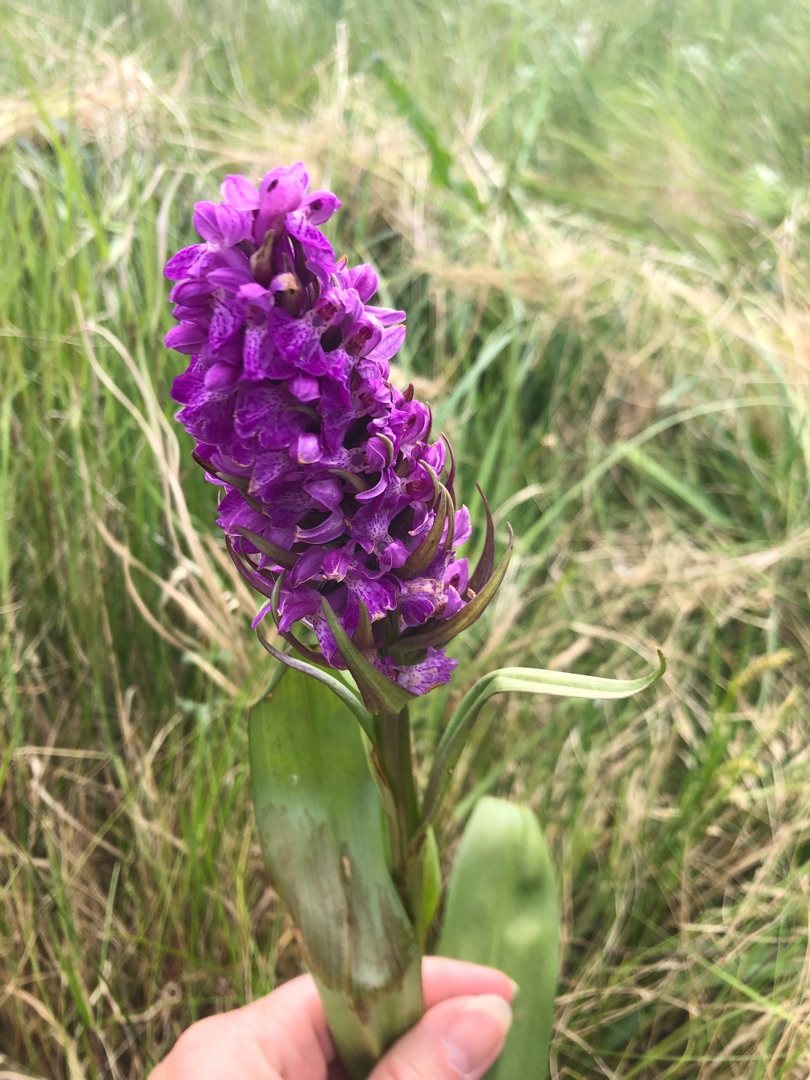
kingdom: Plantae
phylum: Tracheophyta
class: Liliopsida
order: Asparagales
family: Orchidaceae
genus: Dactylorhiza
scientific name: Dactylorhiza majalis
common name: Maj-gøgeurt
